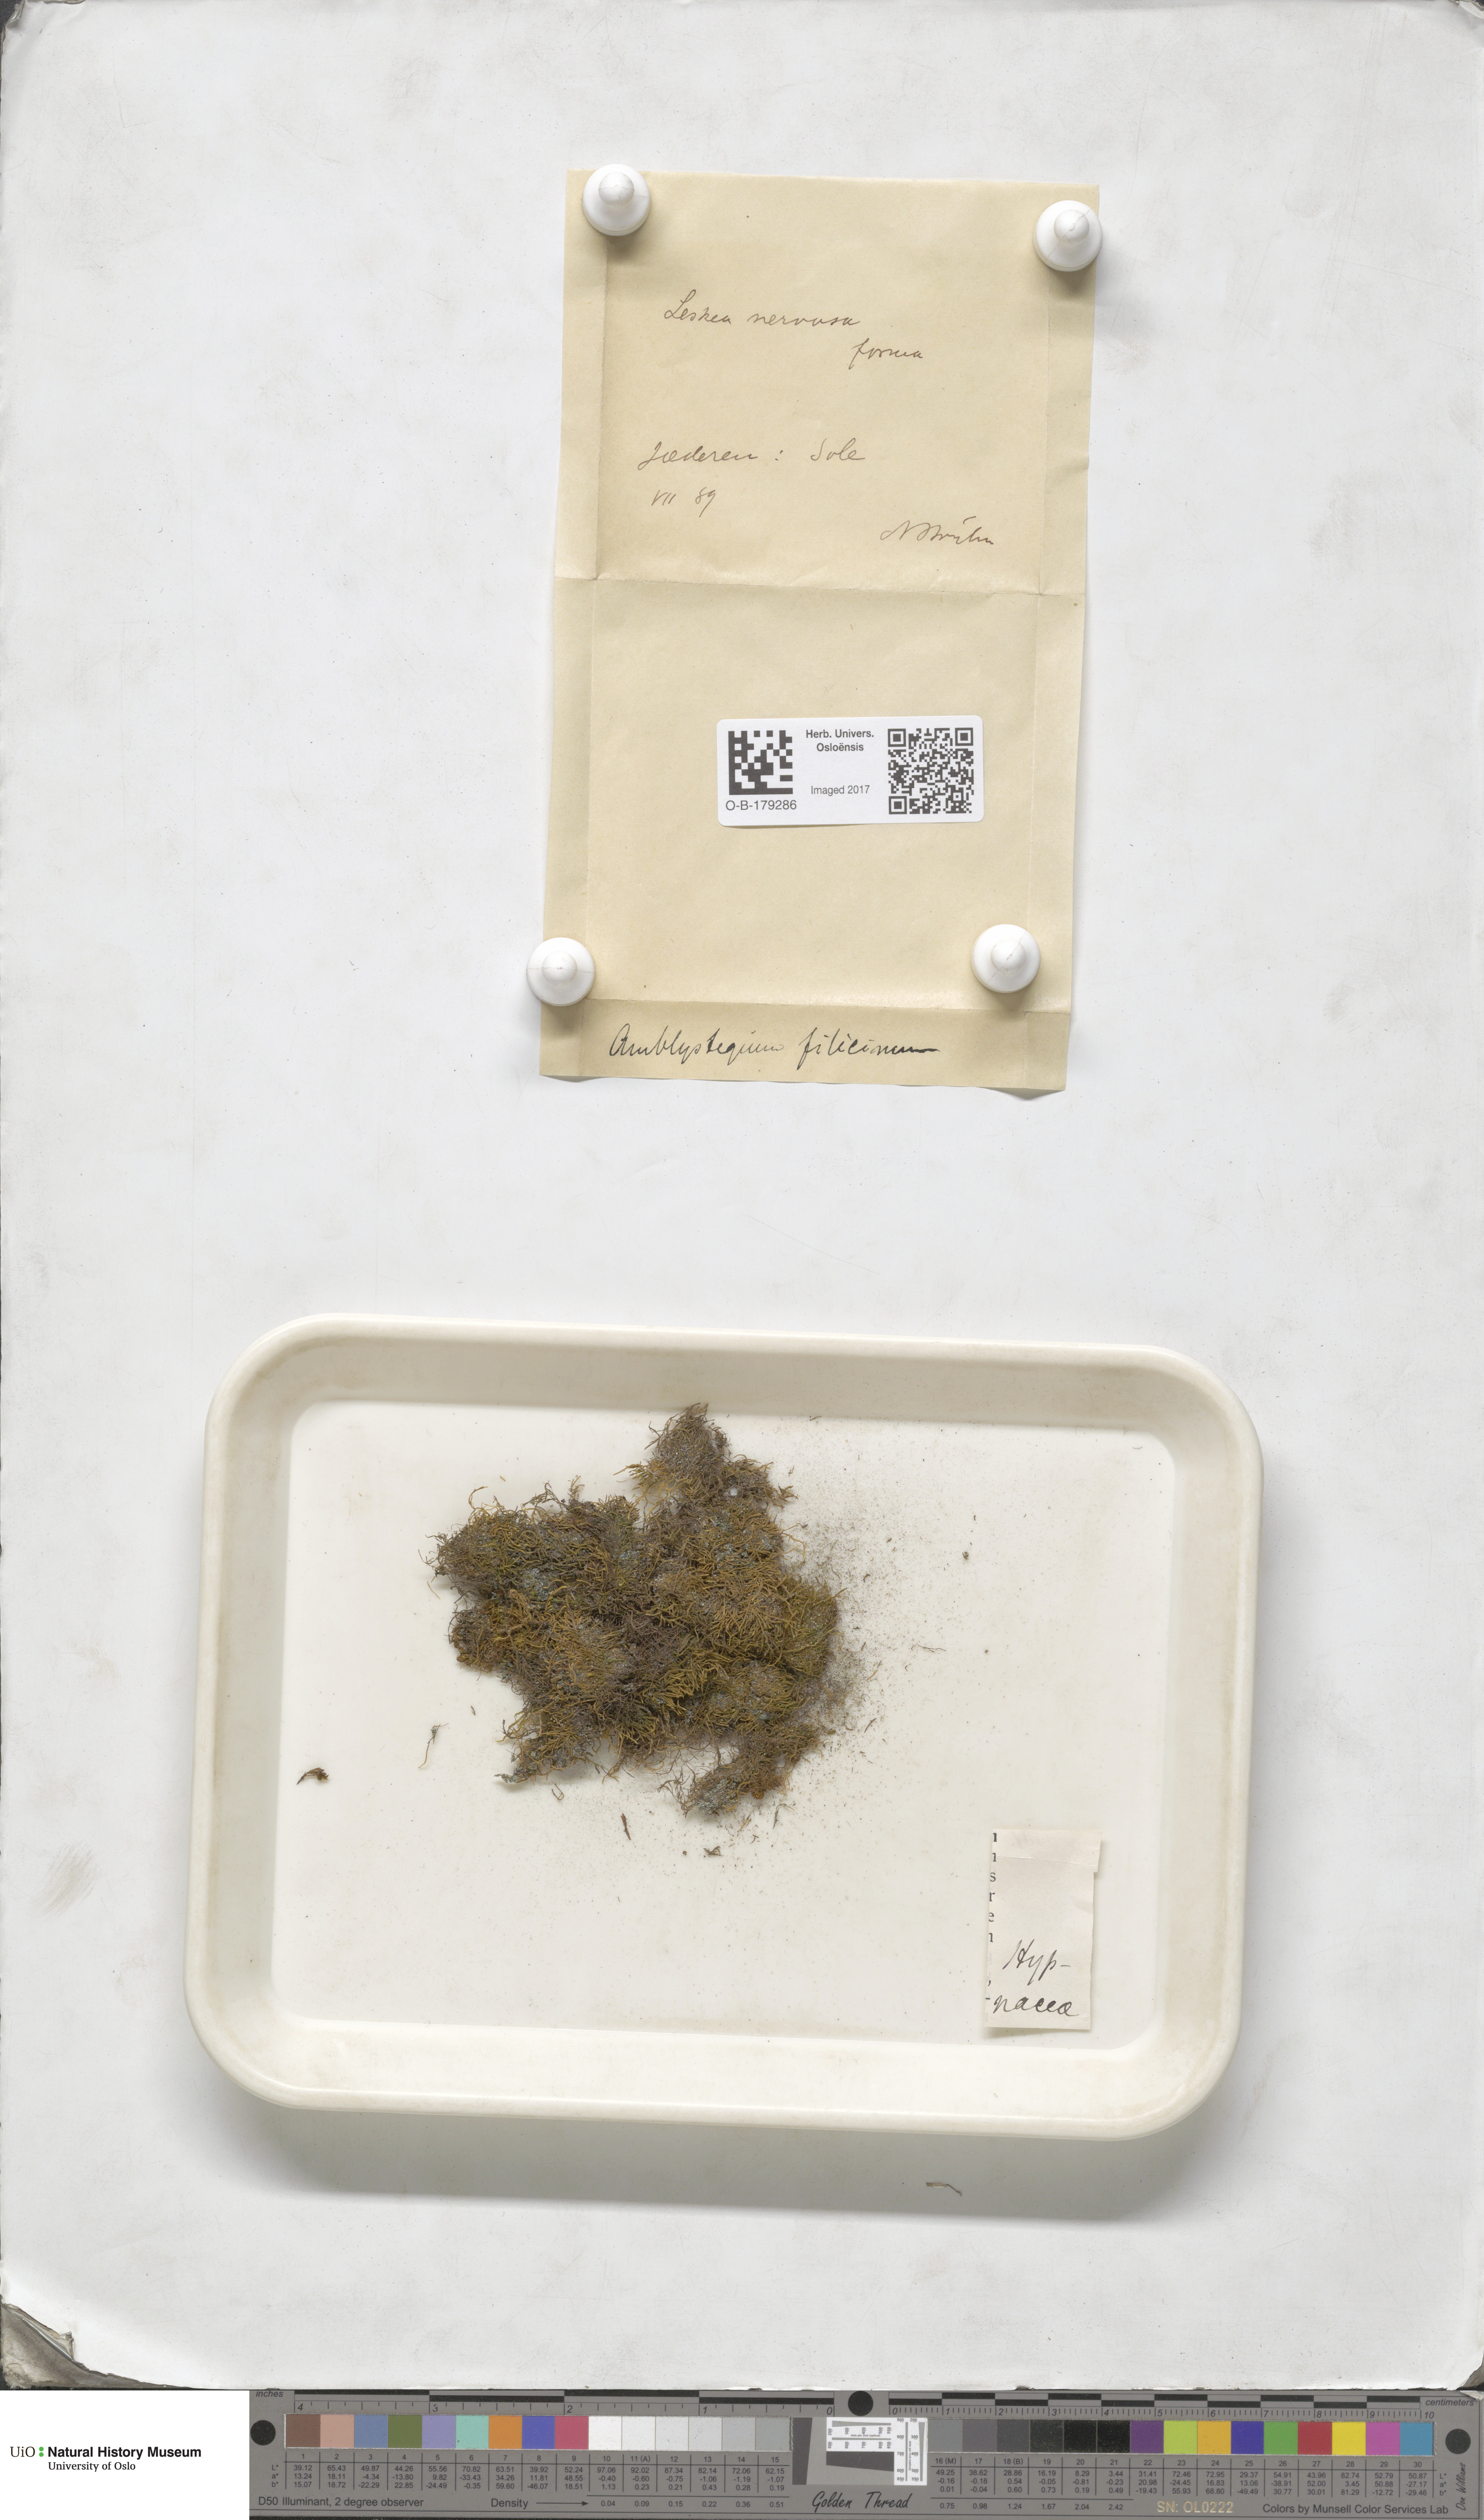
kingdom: Plantae
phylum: Bryophyta
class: Bryopsida
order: Hypnales
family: Amblystegiaceae
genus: Cratoneuron
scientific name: Cratoneuron filicinum
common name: Fern-leaved hook moss
